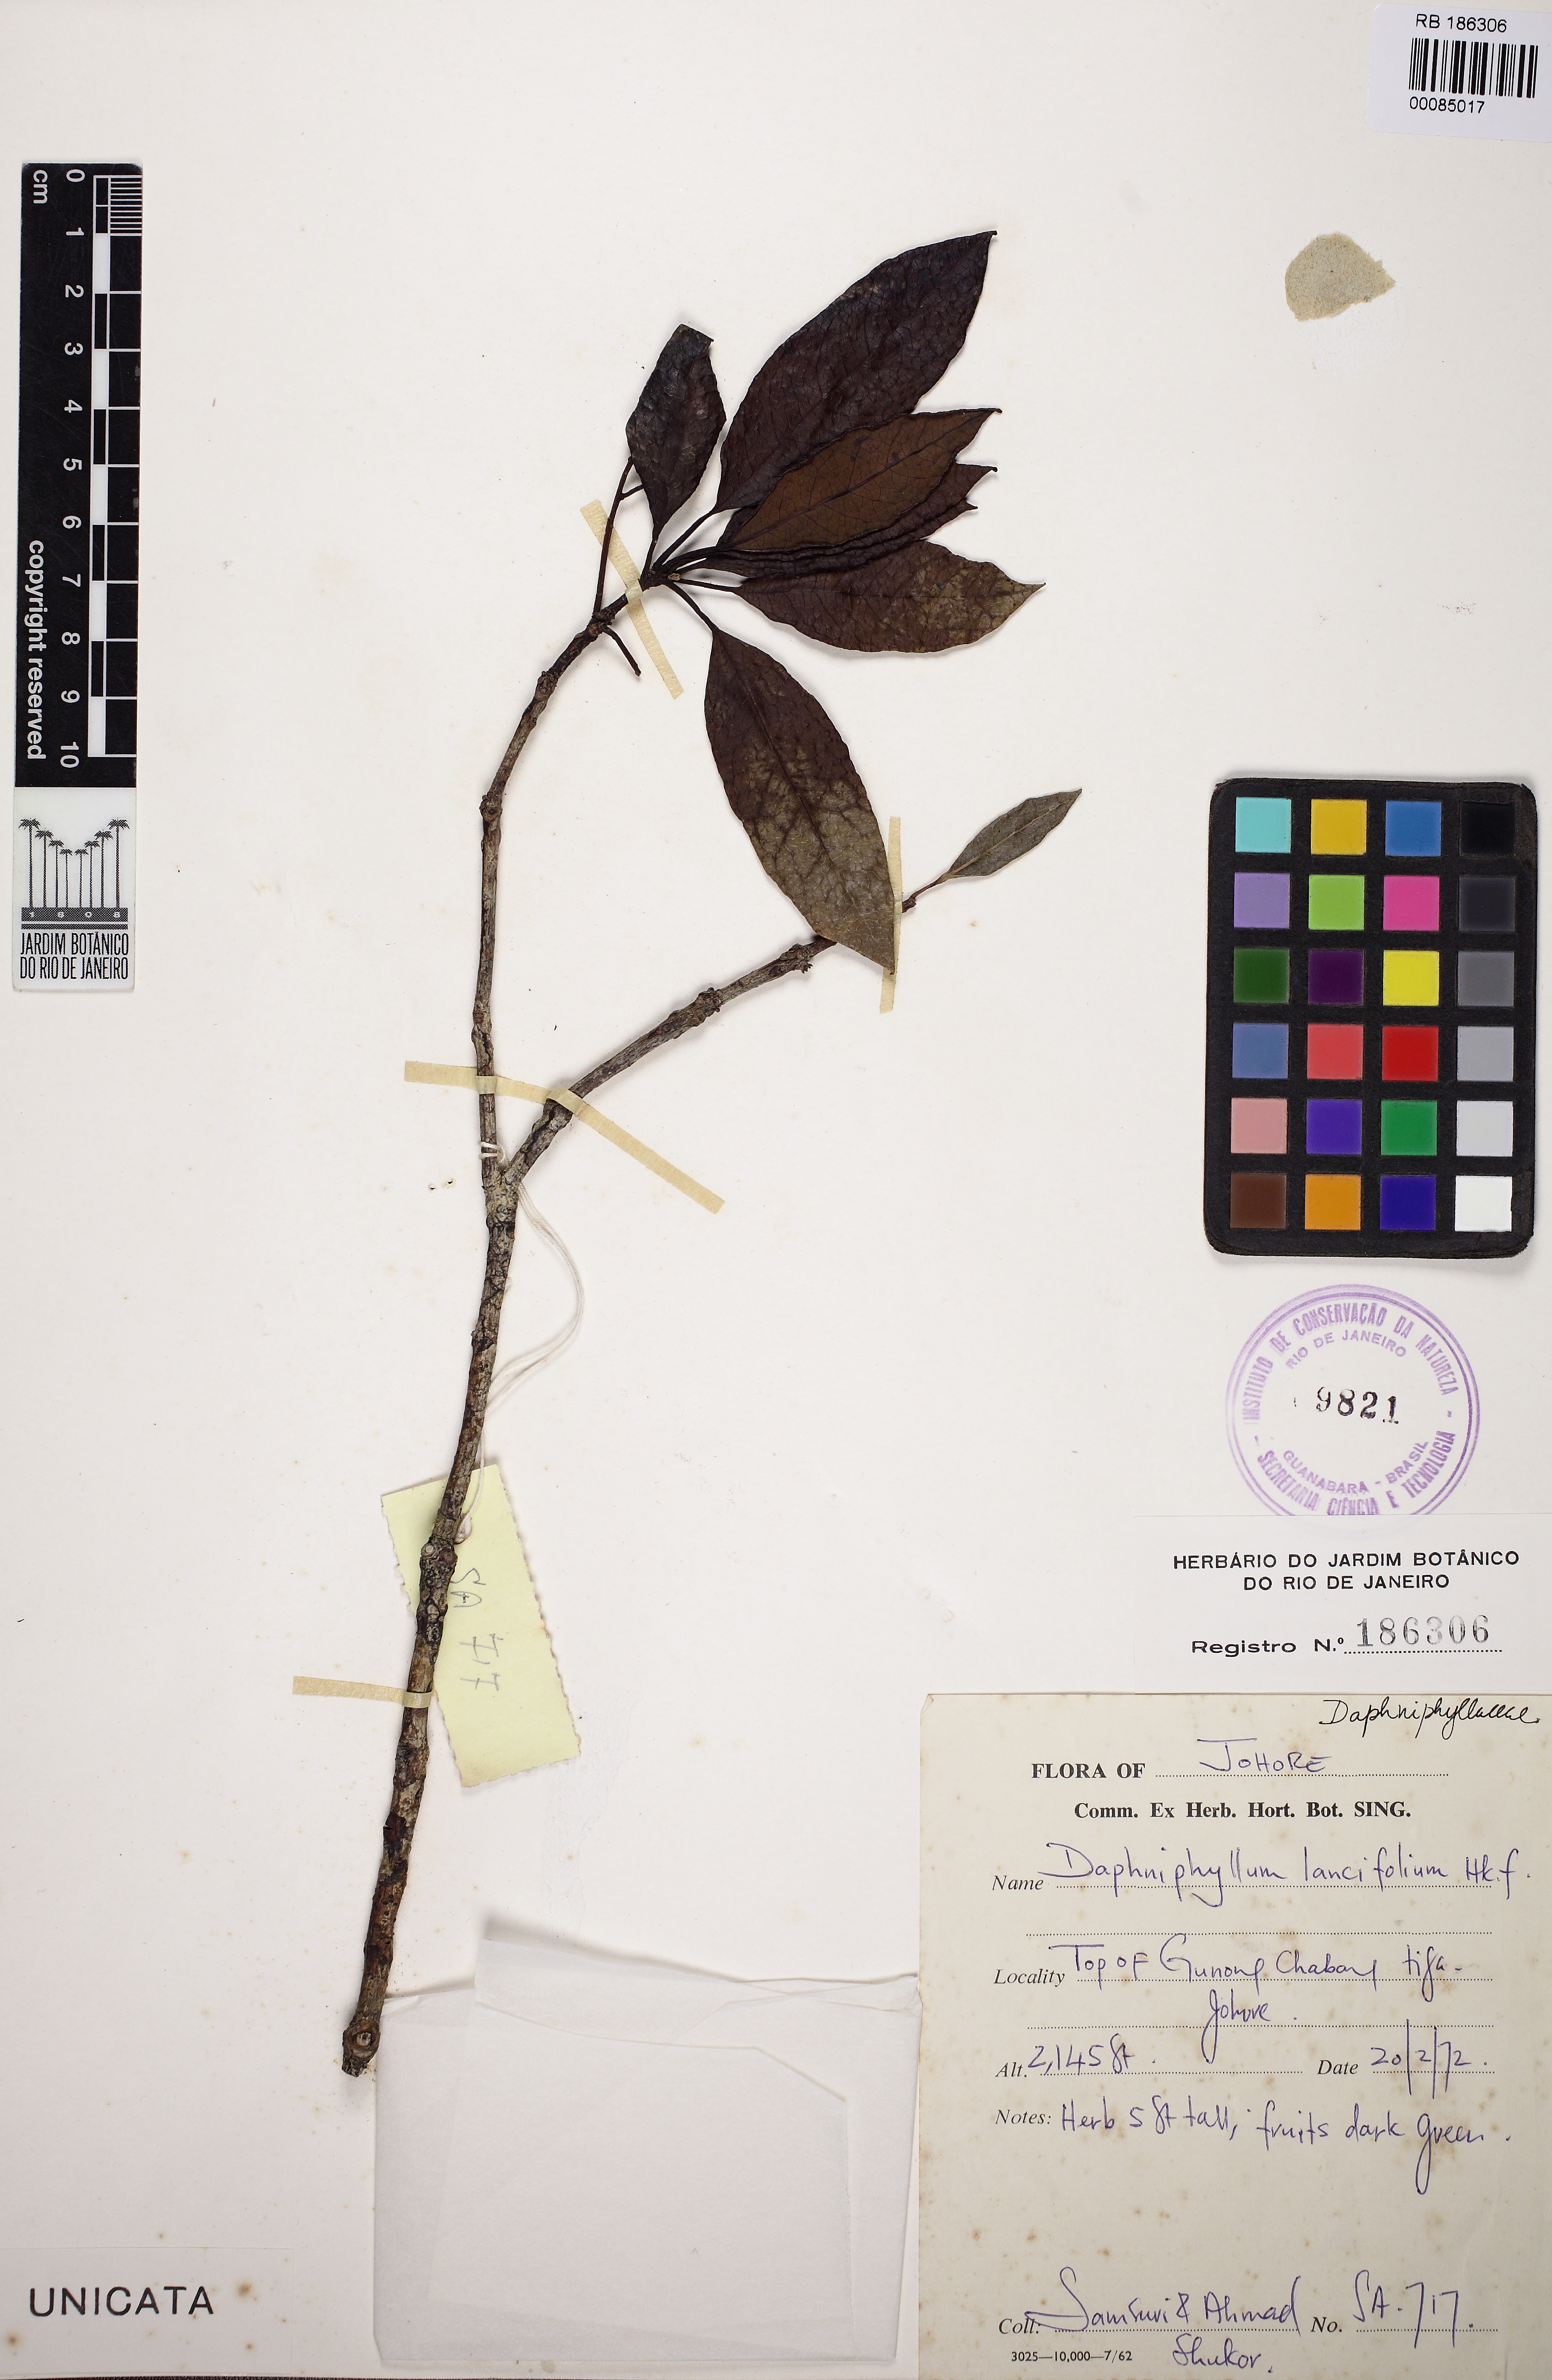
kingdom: Plantae
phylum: Tracheophyta
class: Magnoliopsida
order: Saxifragales
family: Daphniphyllaceae
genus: Daphniphyllum
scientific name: Daphniphyllum glaucescens
